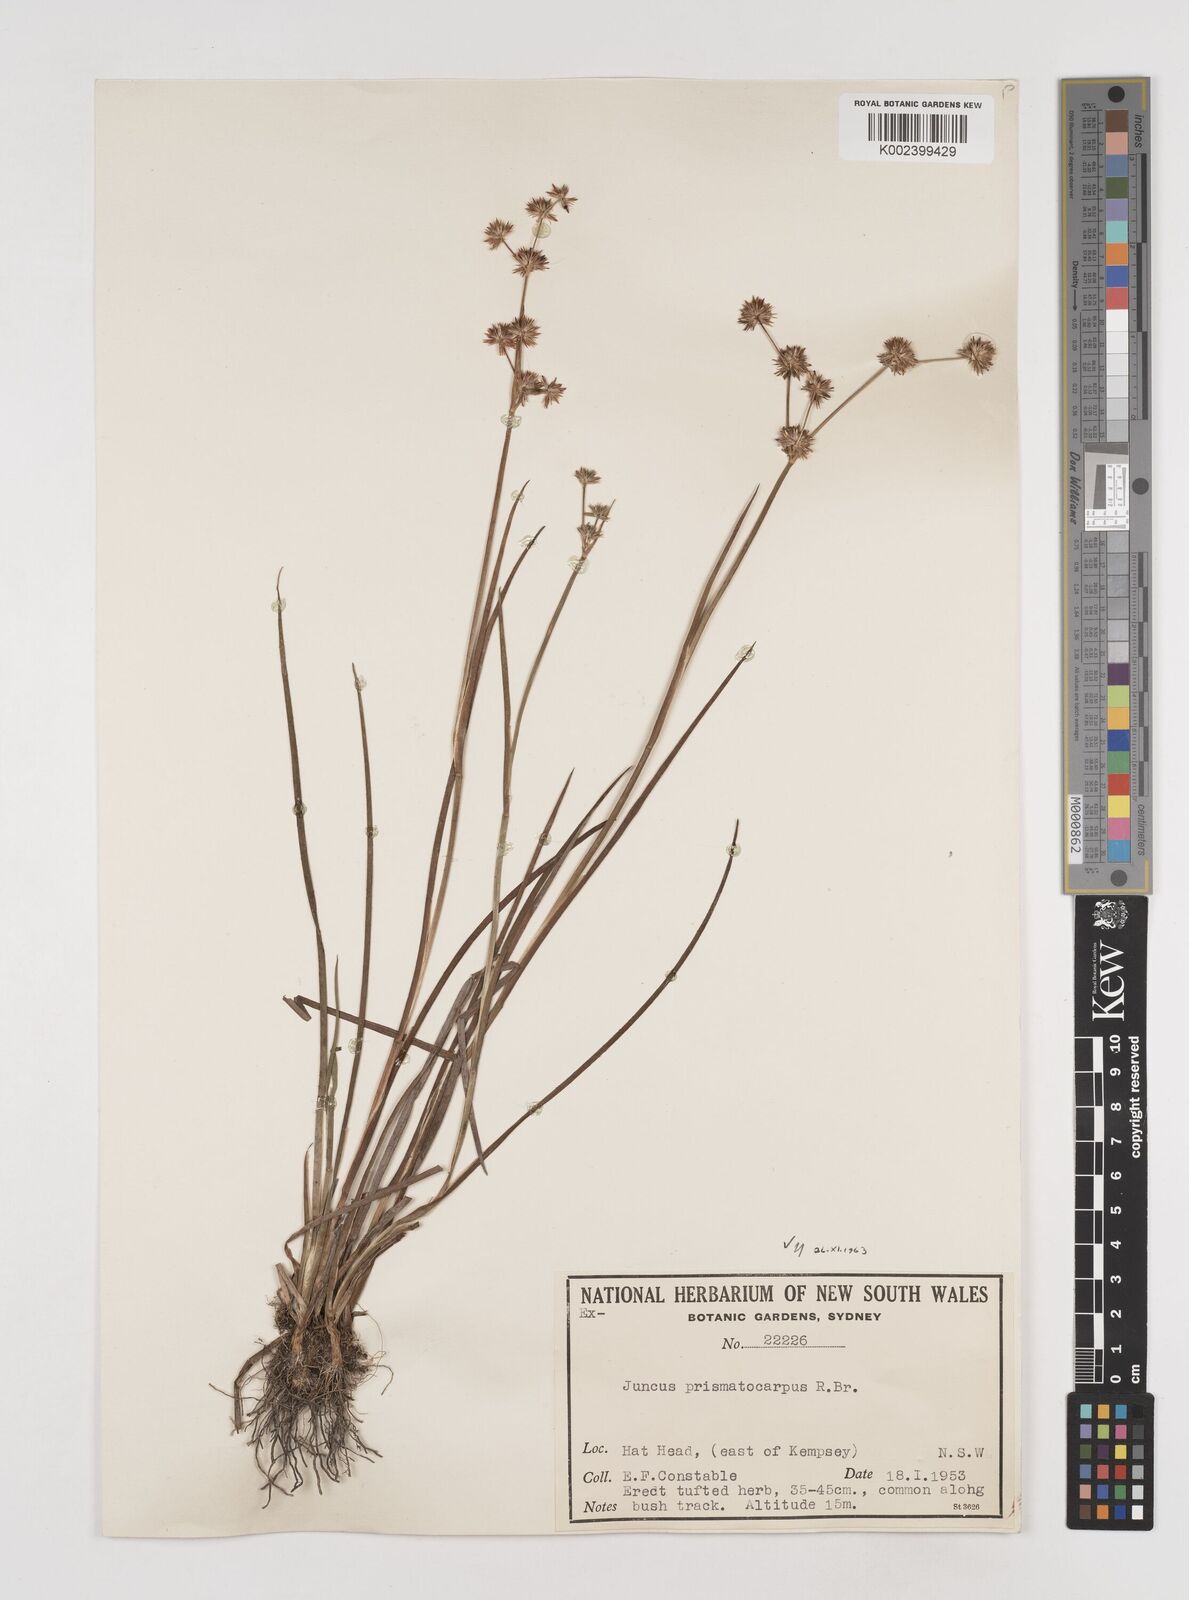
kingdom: Plantae
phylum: Tracheophyta
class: Liliopsida
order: Poales
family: Juncaceae
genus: Juncus
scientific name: Juncus prismatocarpus
